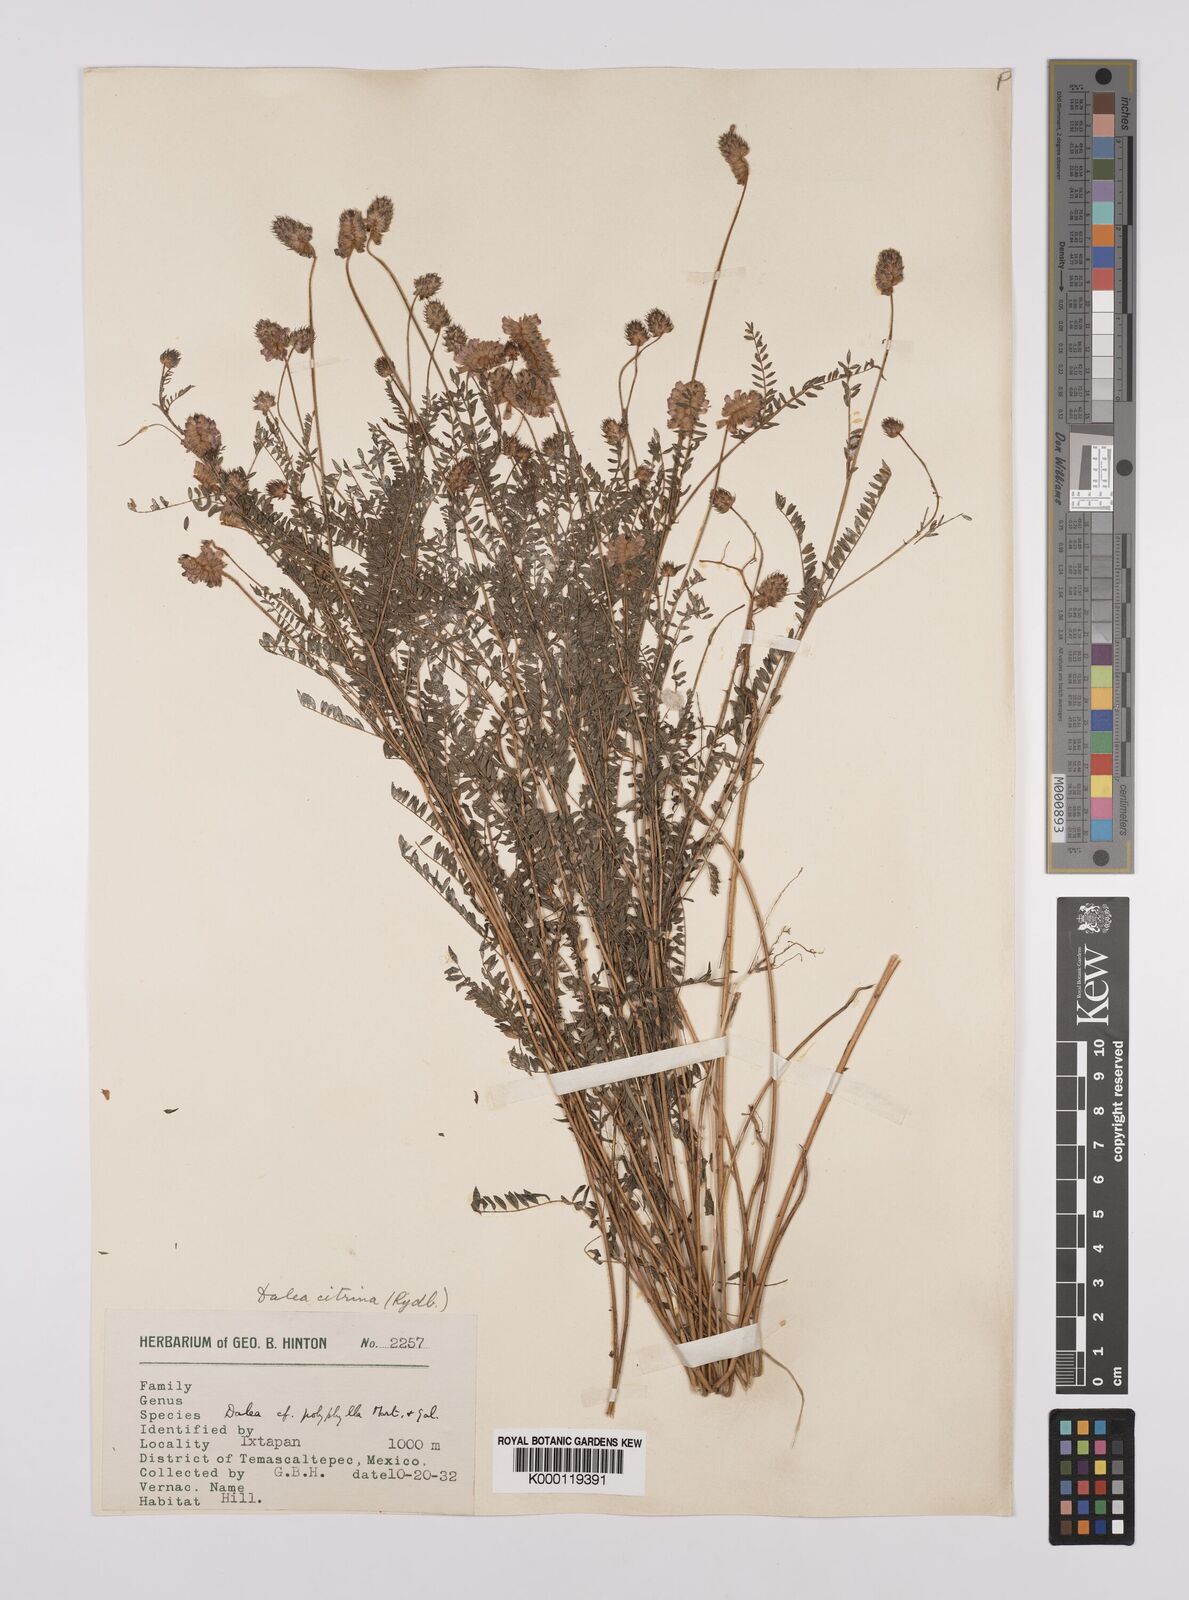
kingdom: Plantae
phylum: Tracheophyta
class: Magnoliopsida
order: Fabales
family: Fabaceae
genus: Dalea
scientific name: Dalea foliolosa
